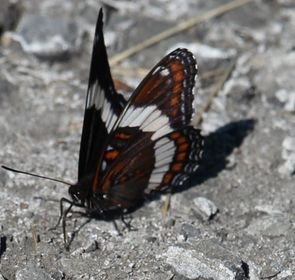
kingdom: Animalia
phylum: Arthropoda
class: Insecta
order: Lepidoptera
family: Nymphalidae
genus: Limenitis
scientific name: Limenitis arthemis
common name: Red-spotted Admiral
